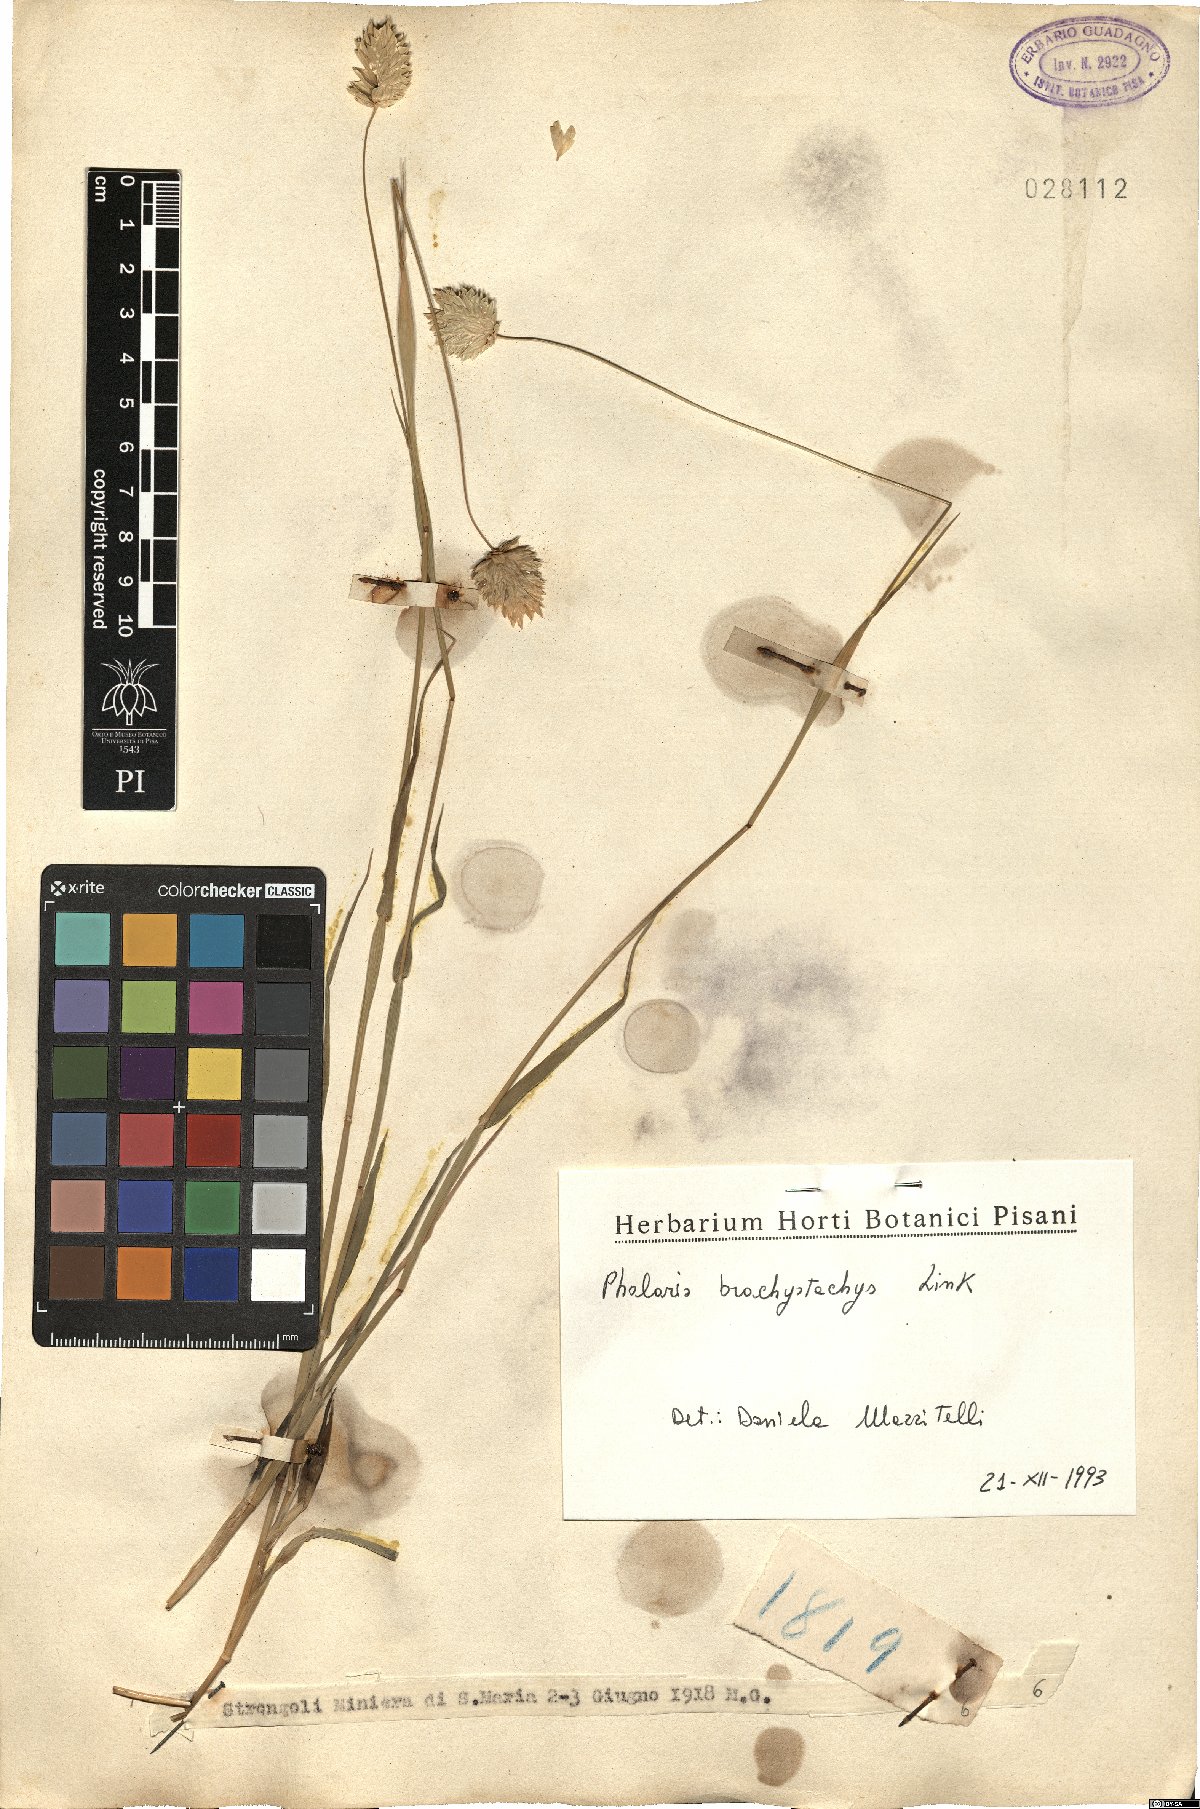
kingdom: Plantae
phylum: Tracheophyta
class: Liliopsida
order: Poales
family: Poaceae
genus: Phalaris
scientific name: Phalaris brachystachys
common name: Confused canary-grass
